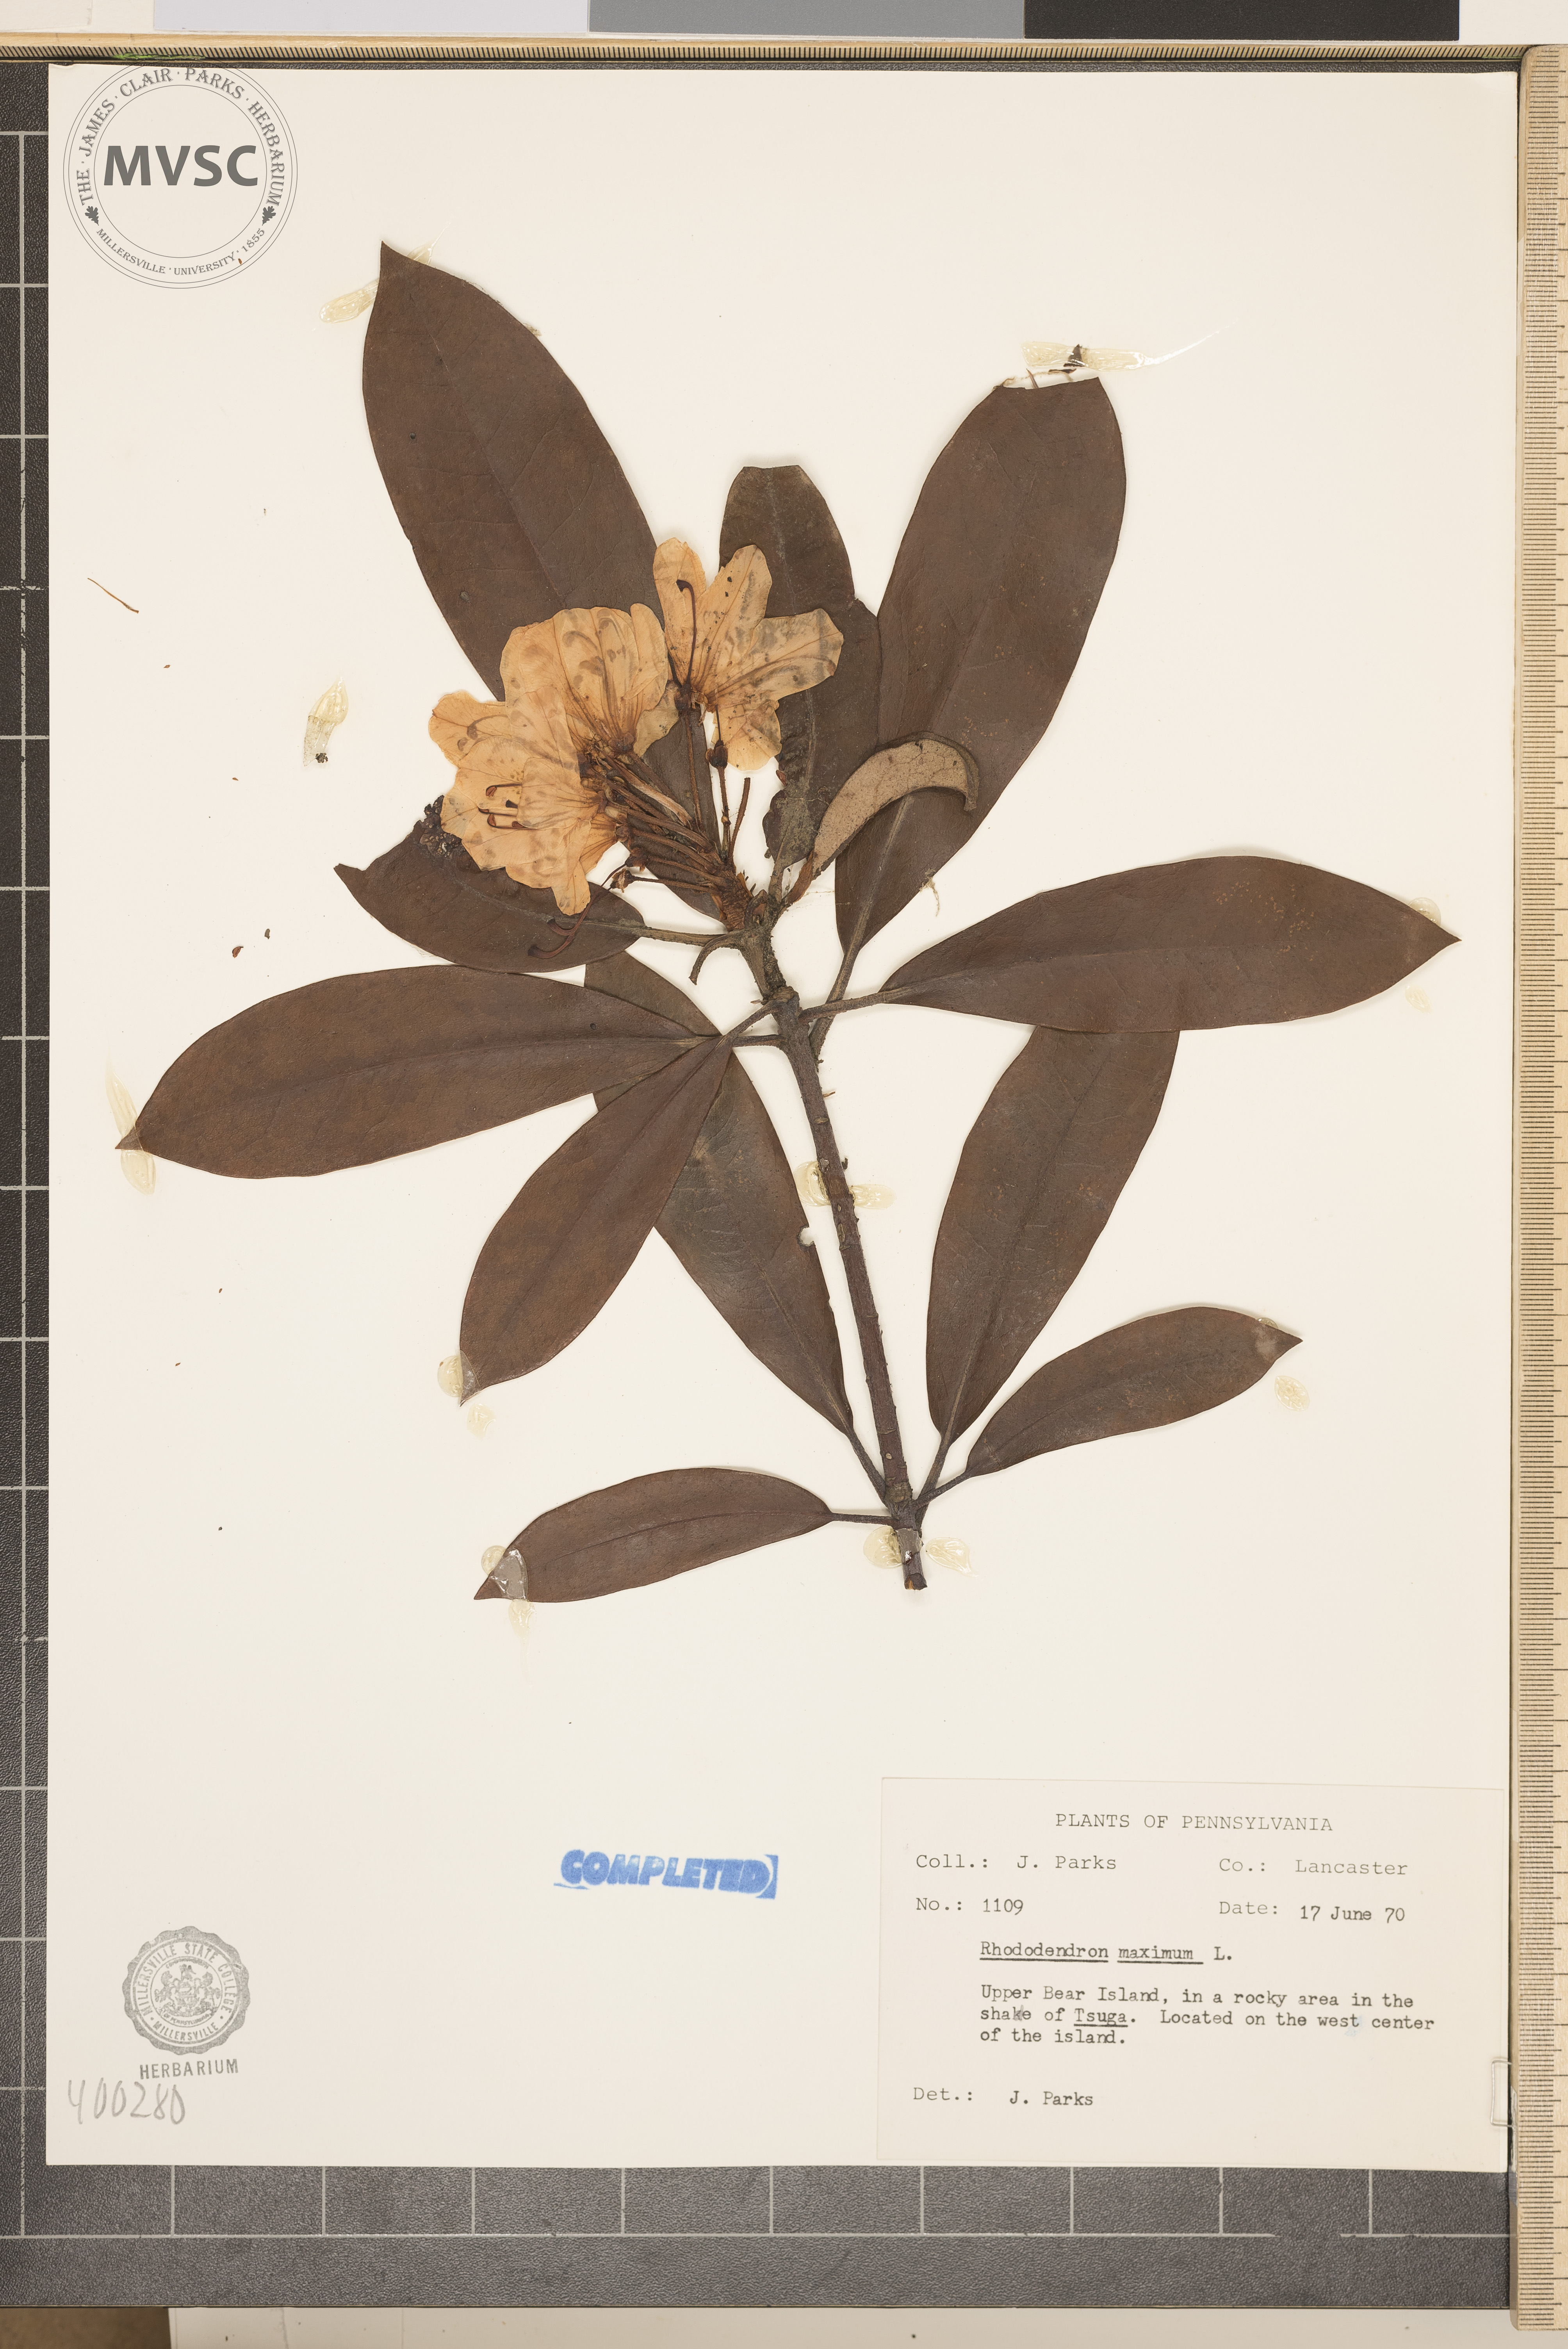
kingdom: Plantae
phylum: Tracheophyta
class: Magnoliopsida
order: Ericales
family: Ericaceae
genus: Rhododendron
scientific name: Rhododendron maximum
